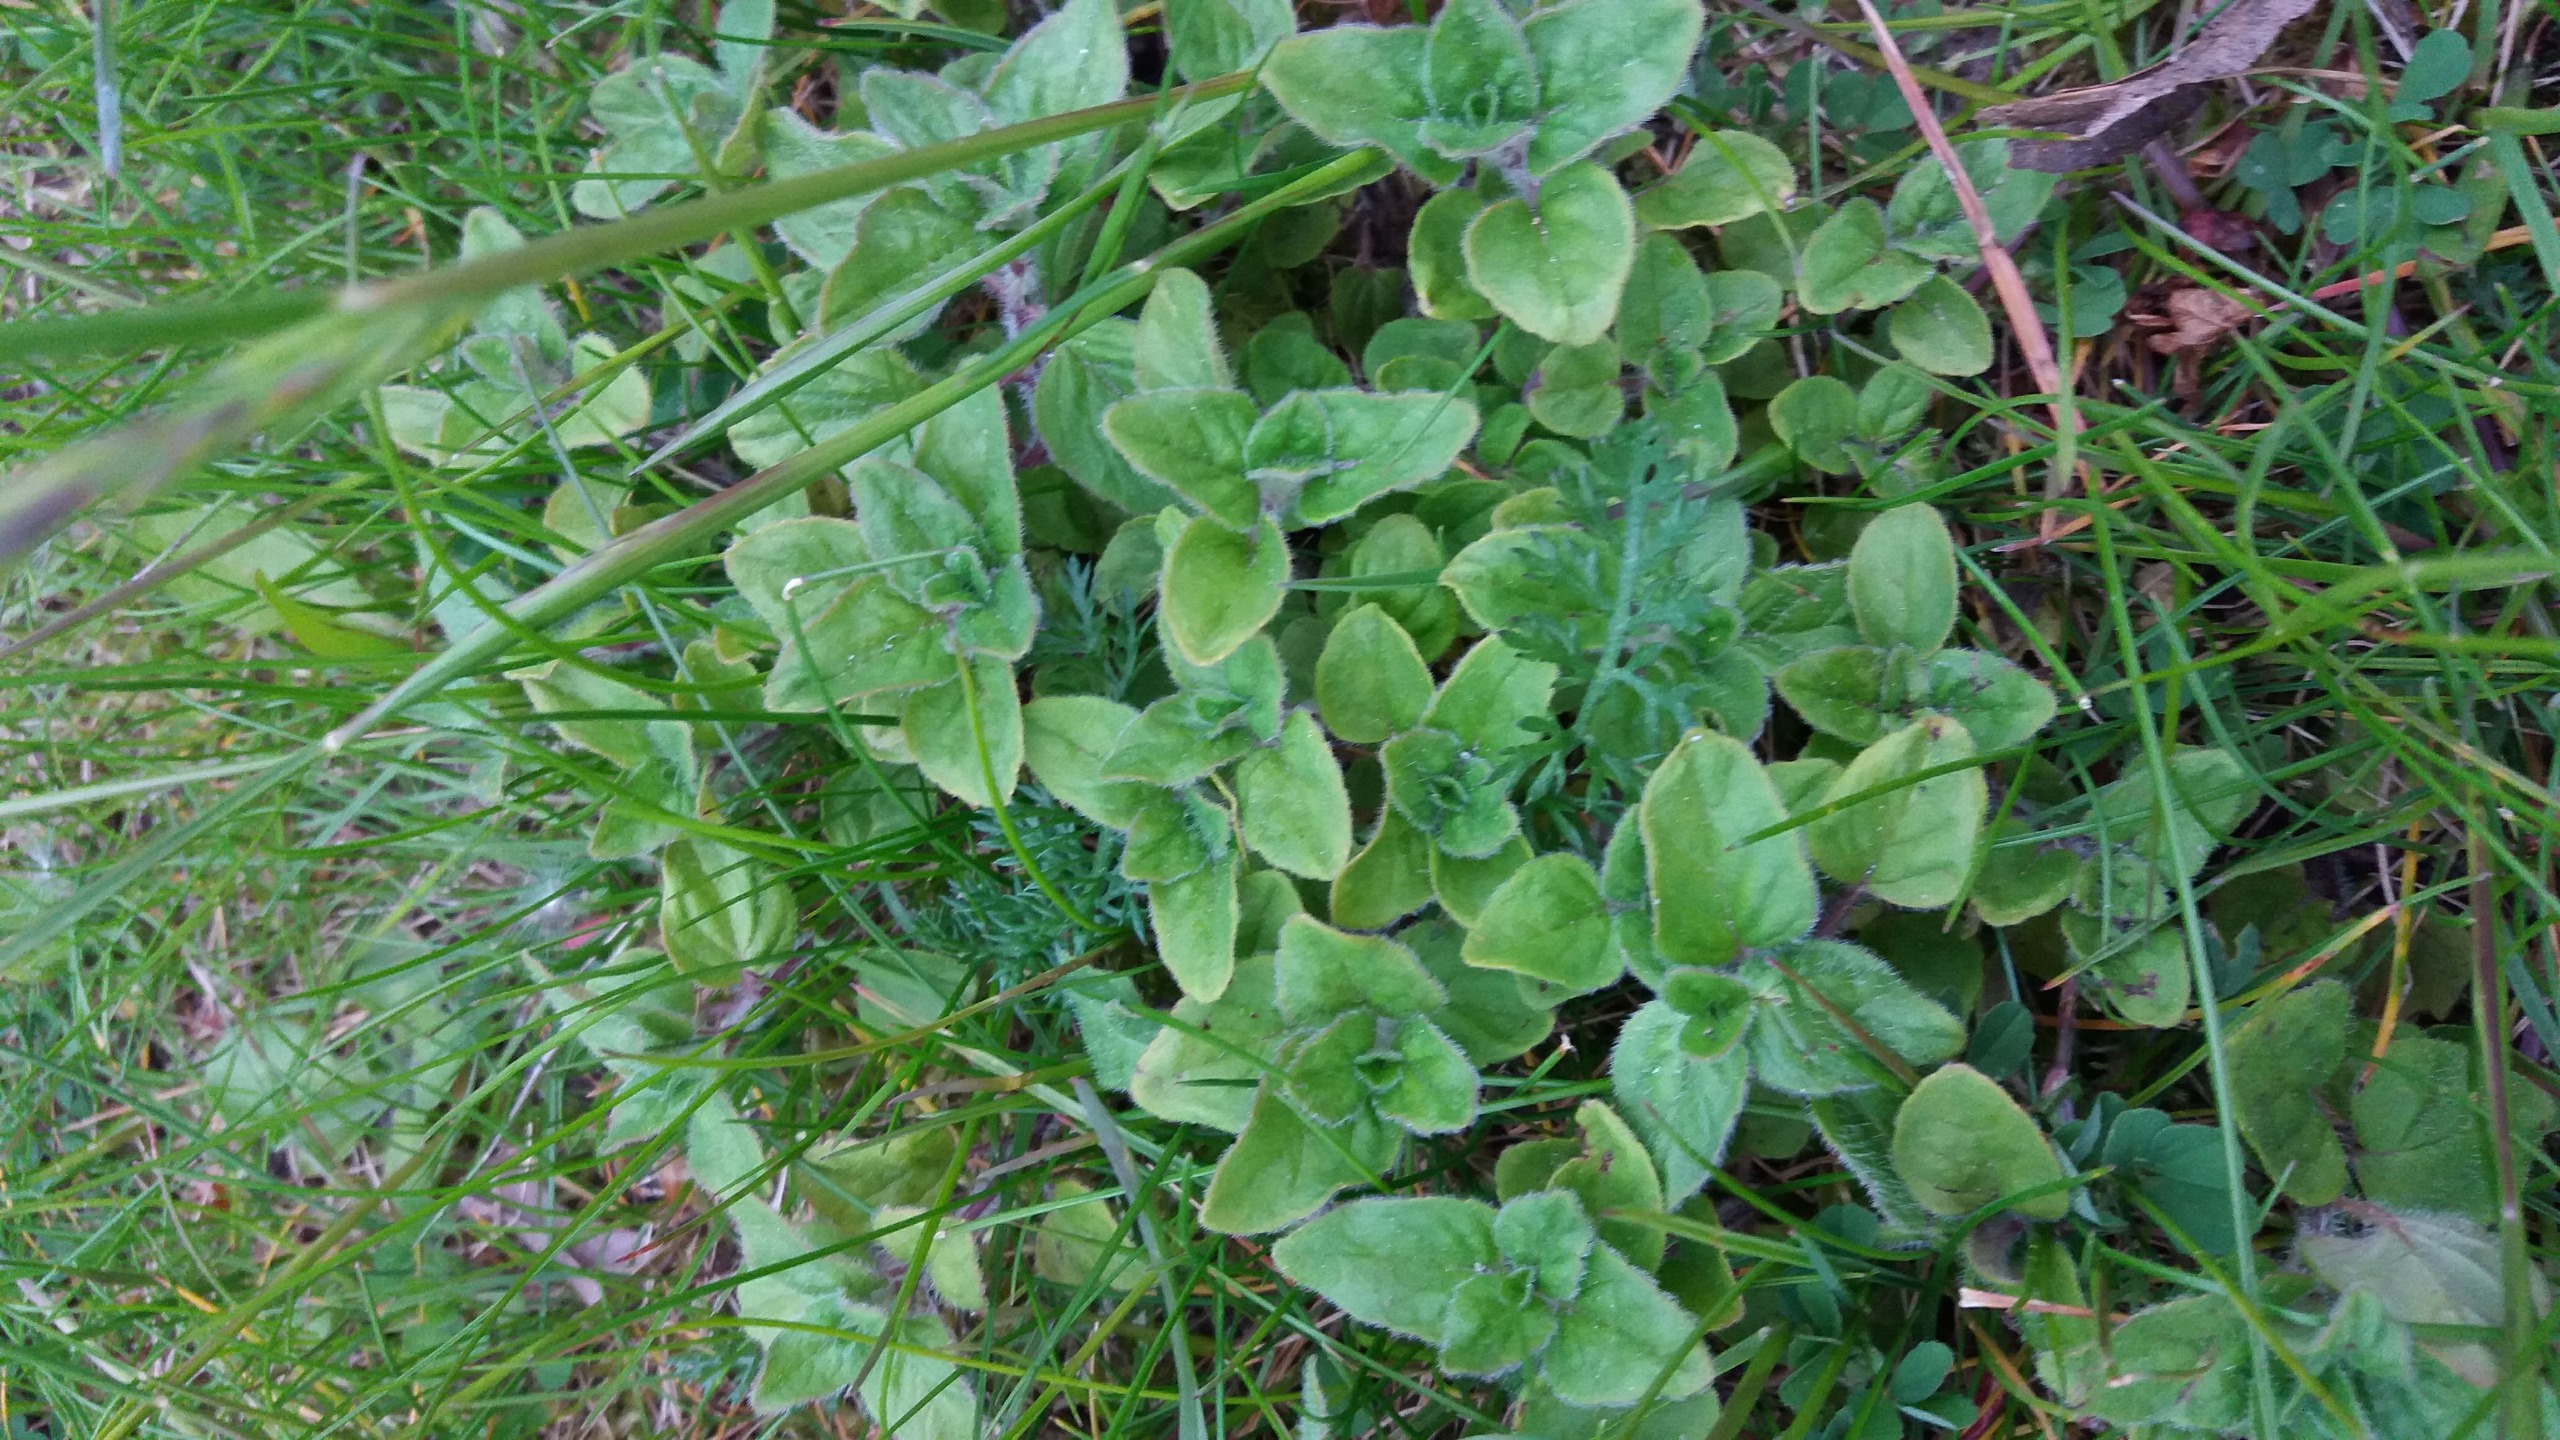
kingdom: Plantae
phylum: Tracheophyta
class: Magnoliopsida
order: Lamiales
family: Lamiaceae
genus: Origanum
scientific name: Origanum vulgare
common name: Merian
